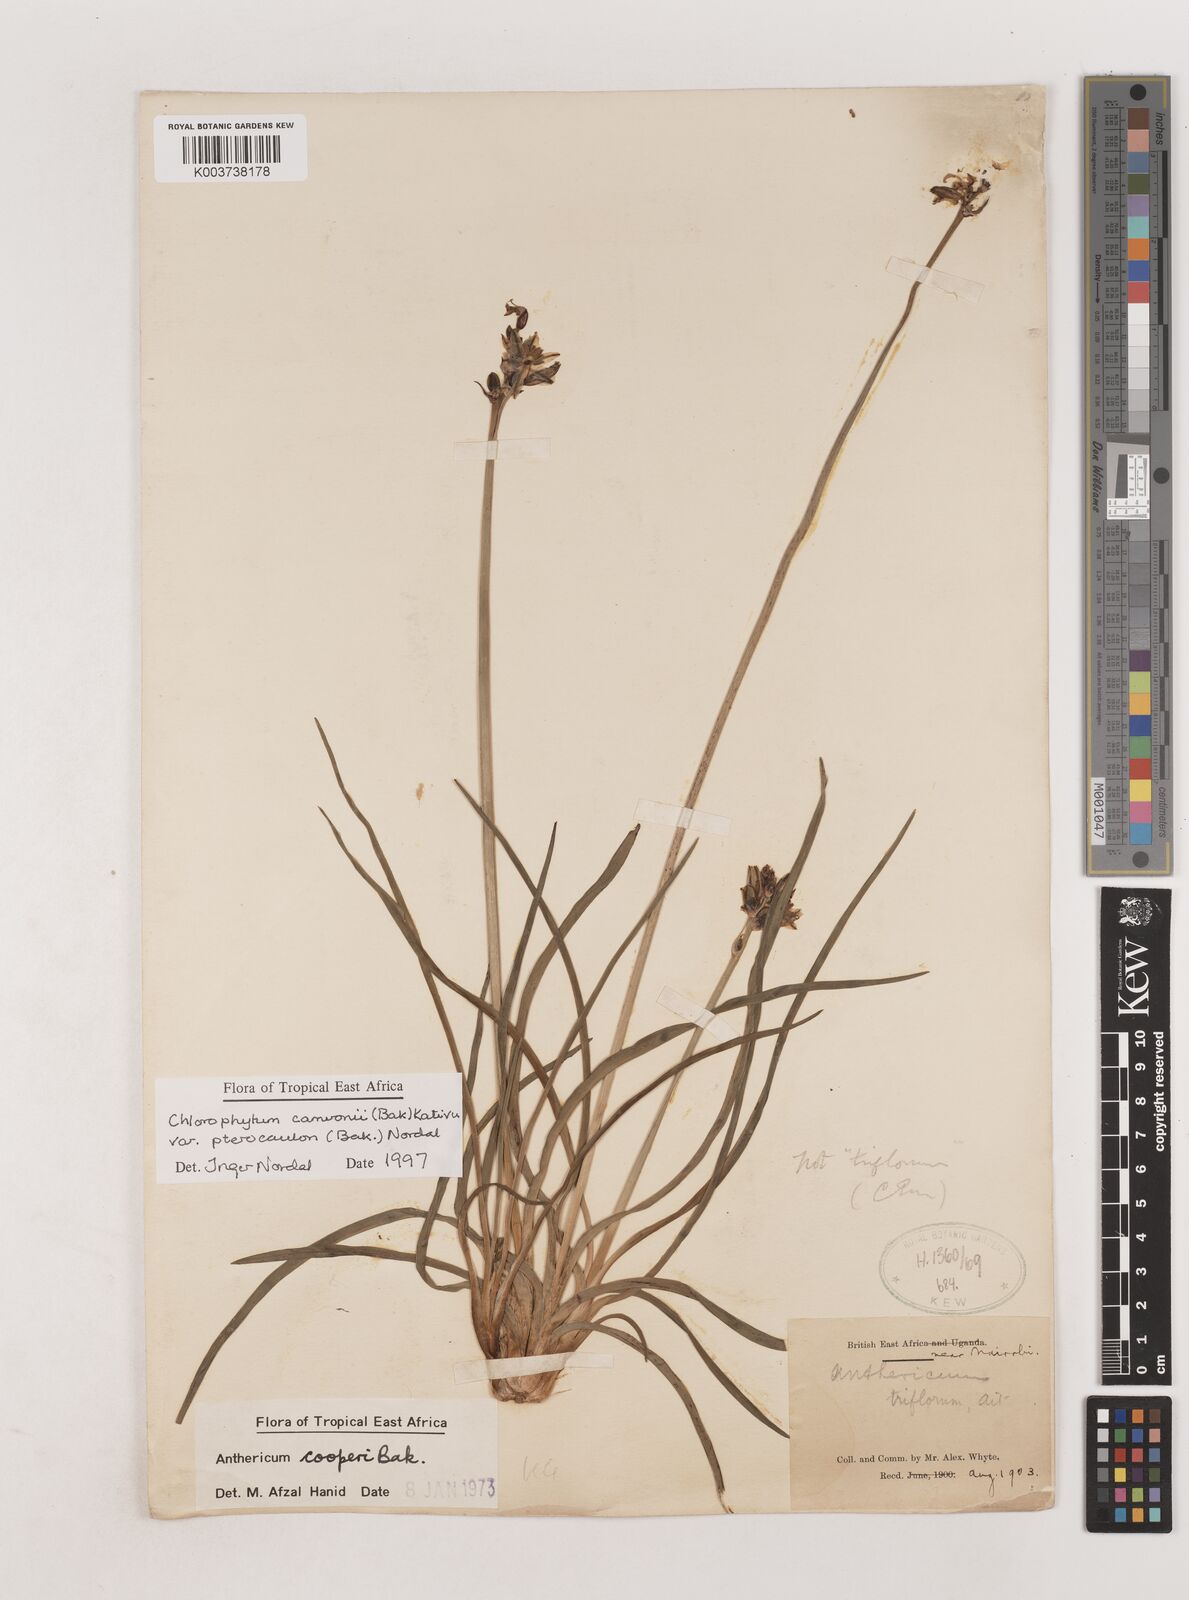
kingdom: Plantae
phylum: Tracheophyta
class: Liliopsida
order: Asparagales
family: Asparagaceae
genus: Chlorophytum
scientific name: Chlorophytum cameronii
